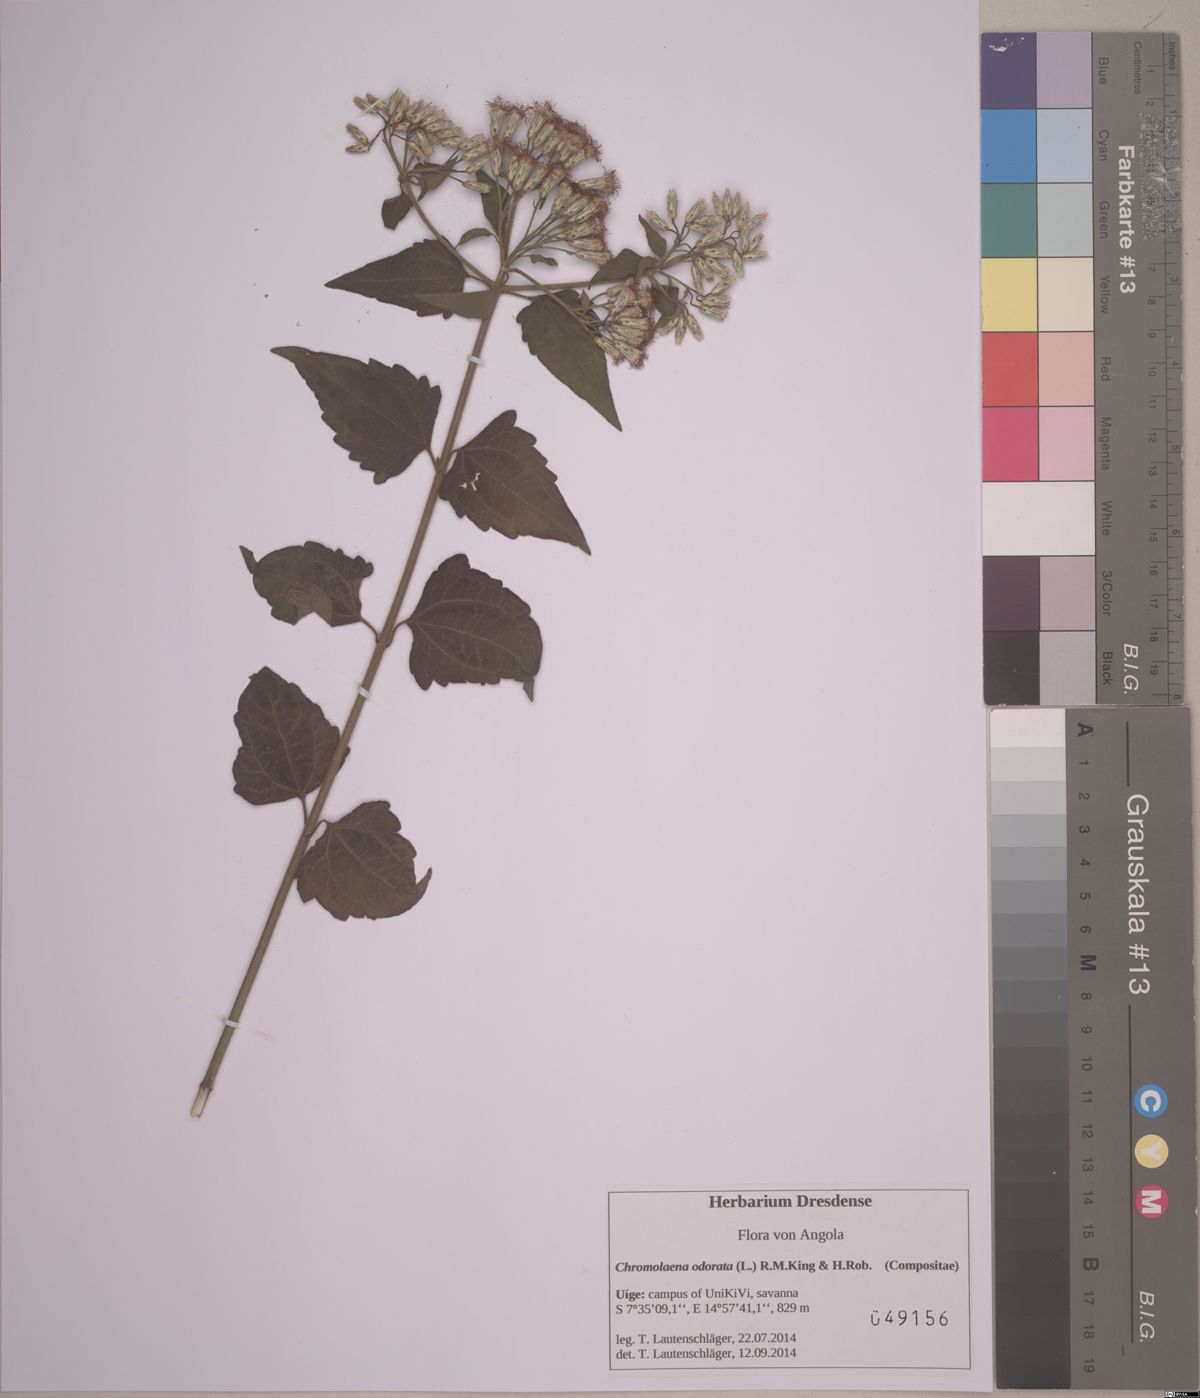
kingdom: Plantae
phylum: Tracheophyta
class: Magnoliopsida
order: Asterales
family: Asteraceae
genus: Chromolaena
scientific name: Chromolaena odorata
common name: Siamweed
